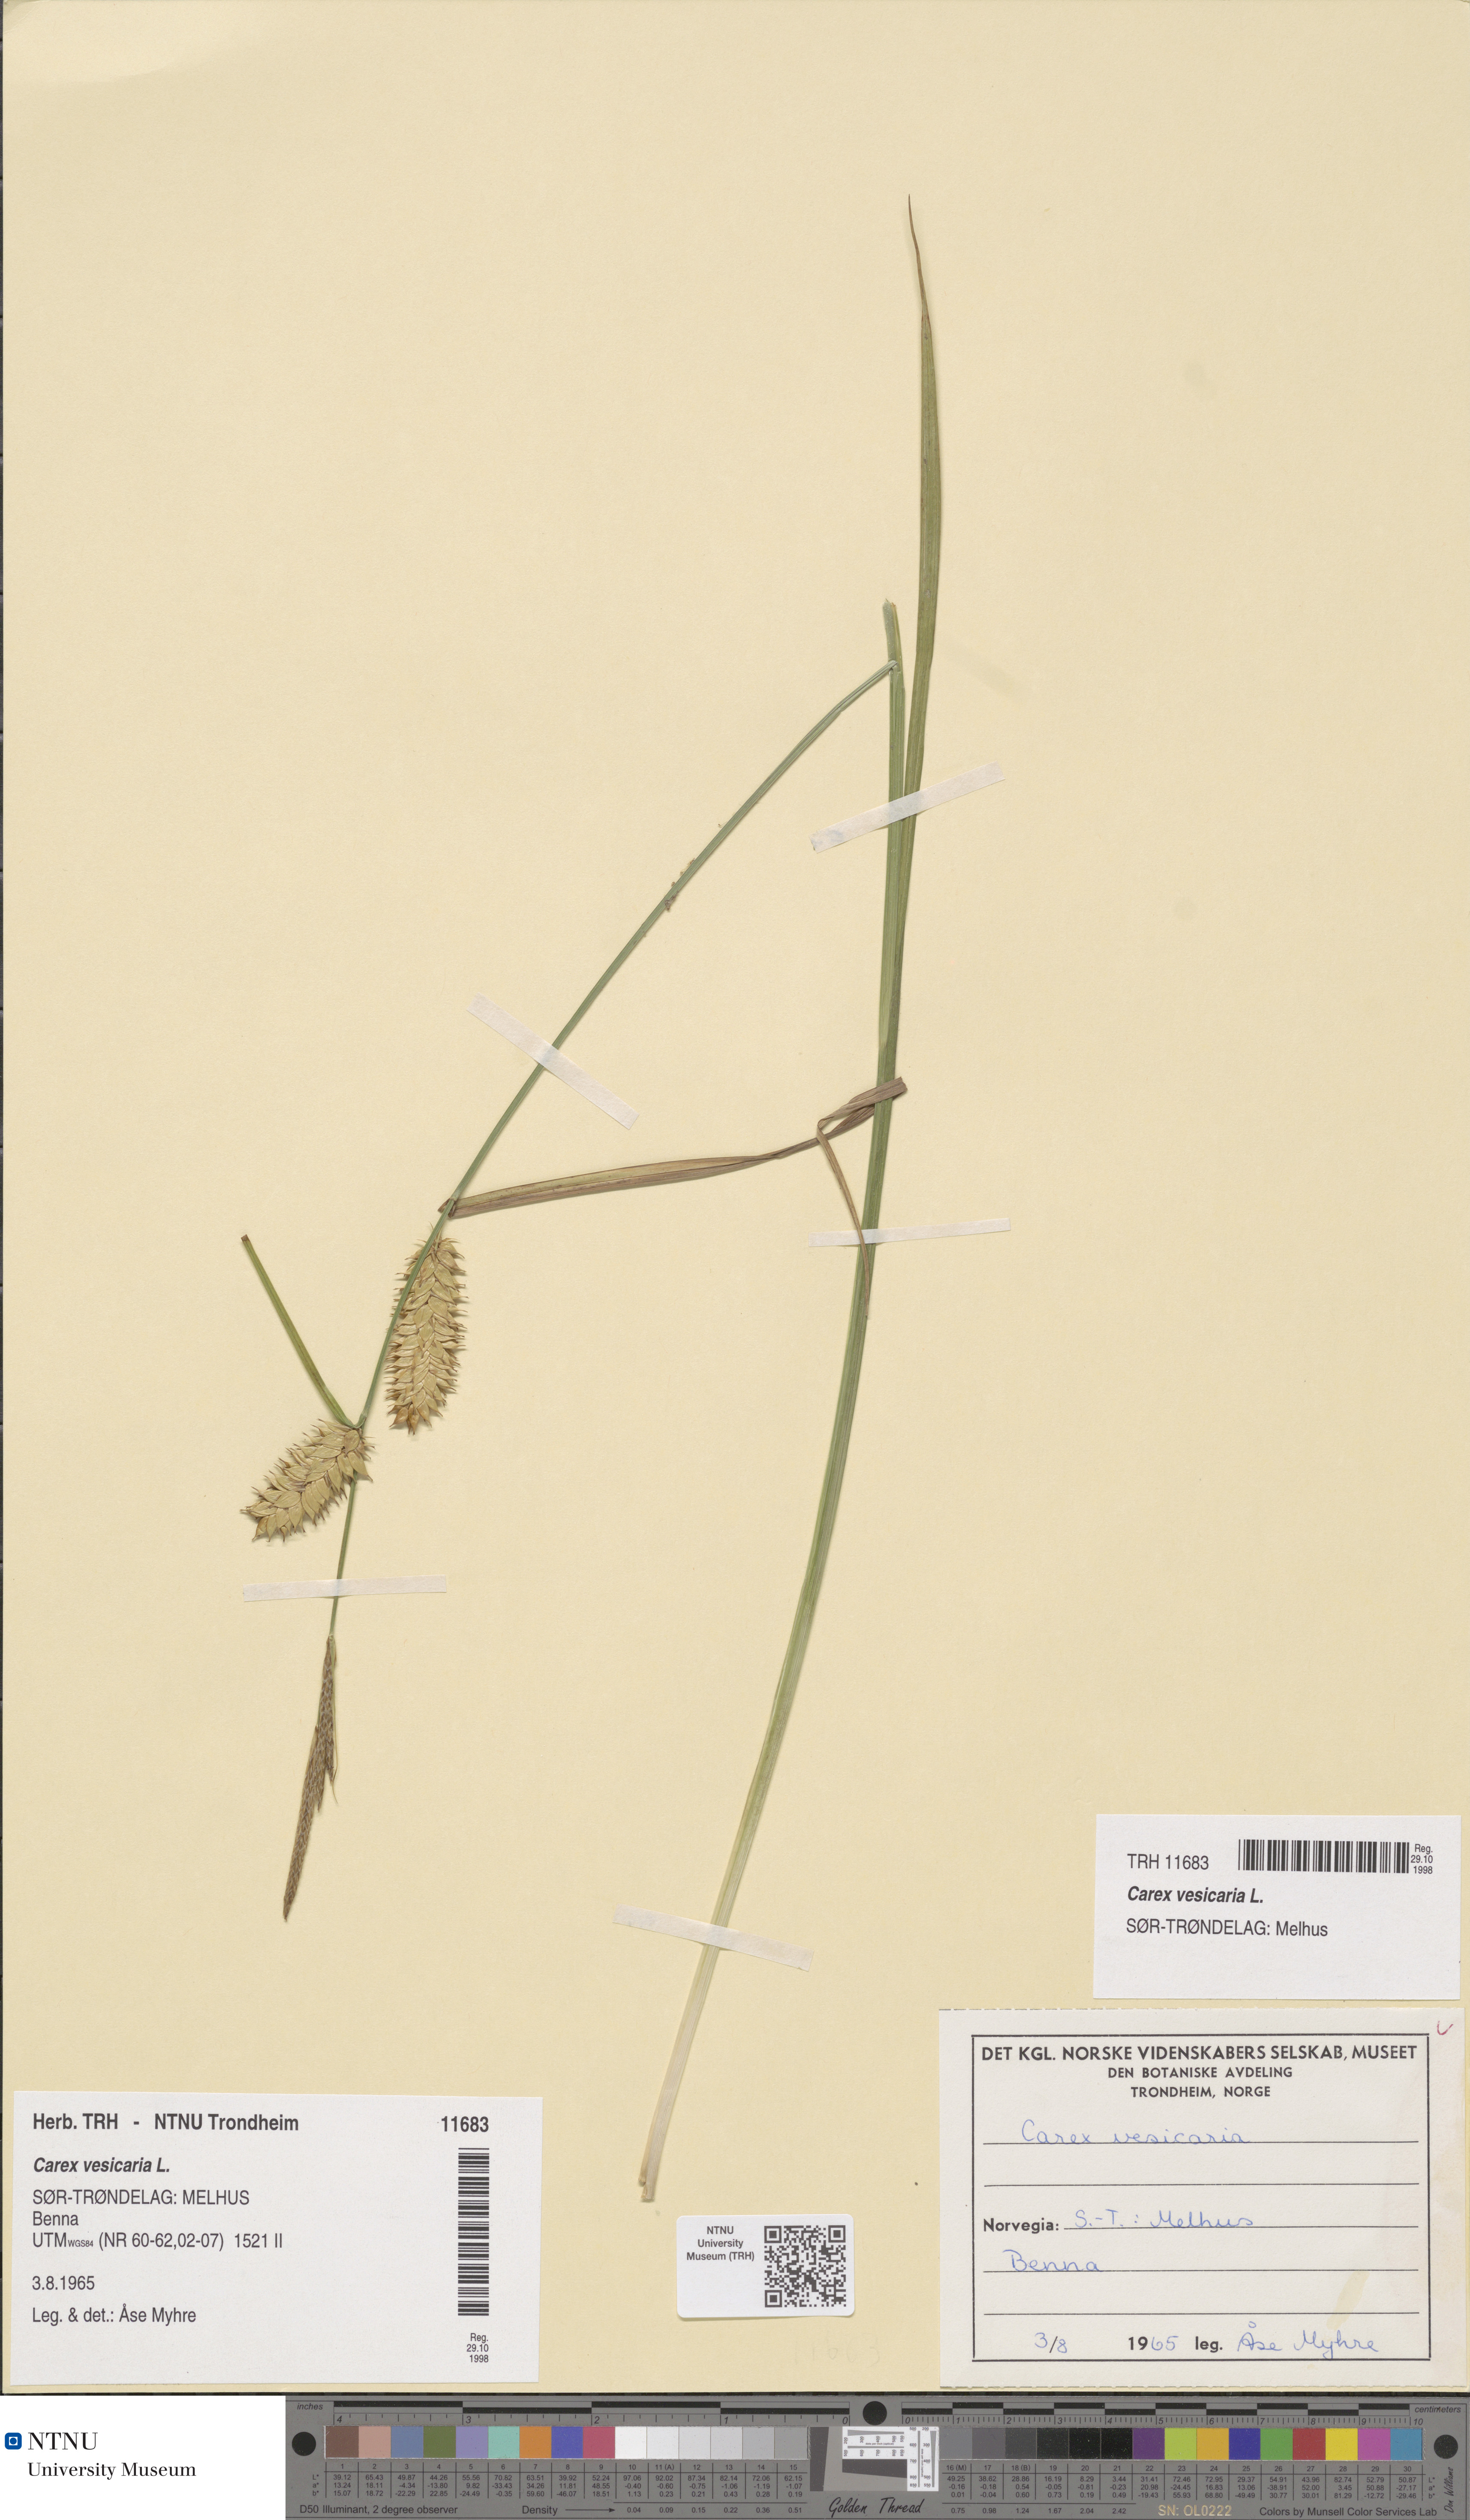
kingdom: Plantae
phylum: Tracheophyta
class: Liliopsida
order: Poales
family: Cyperaceae
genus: Carex
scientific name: Carex vesicaria
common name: Bladder-sedge
